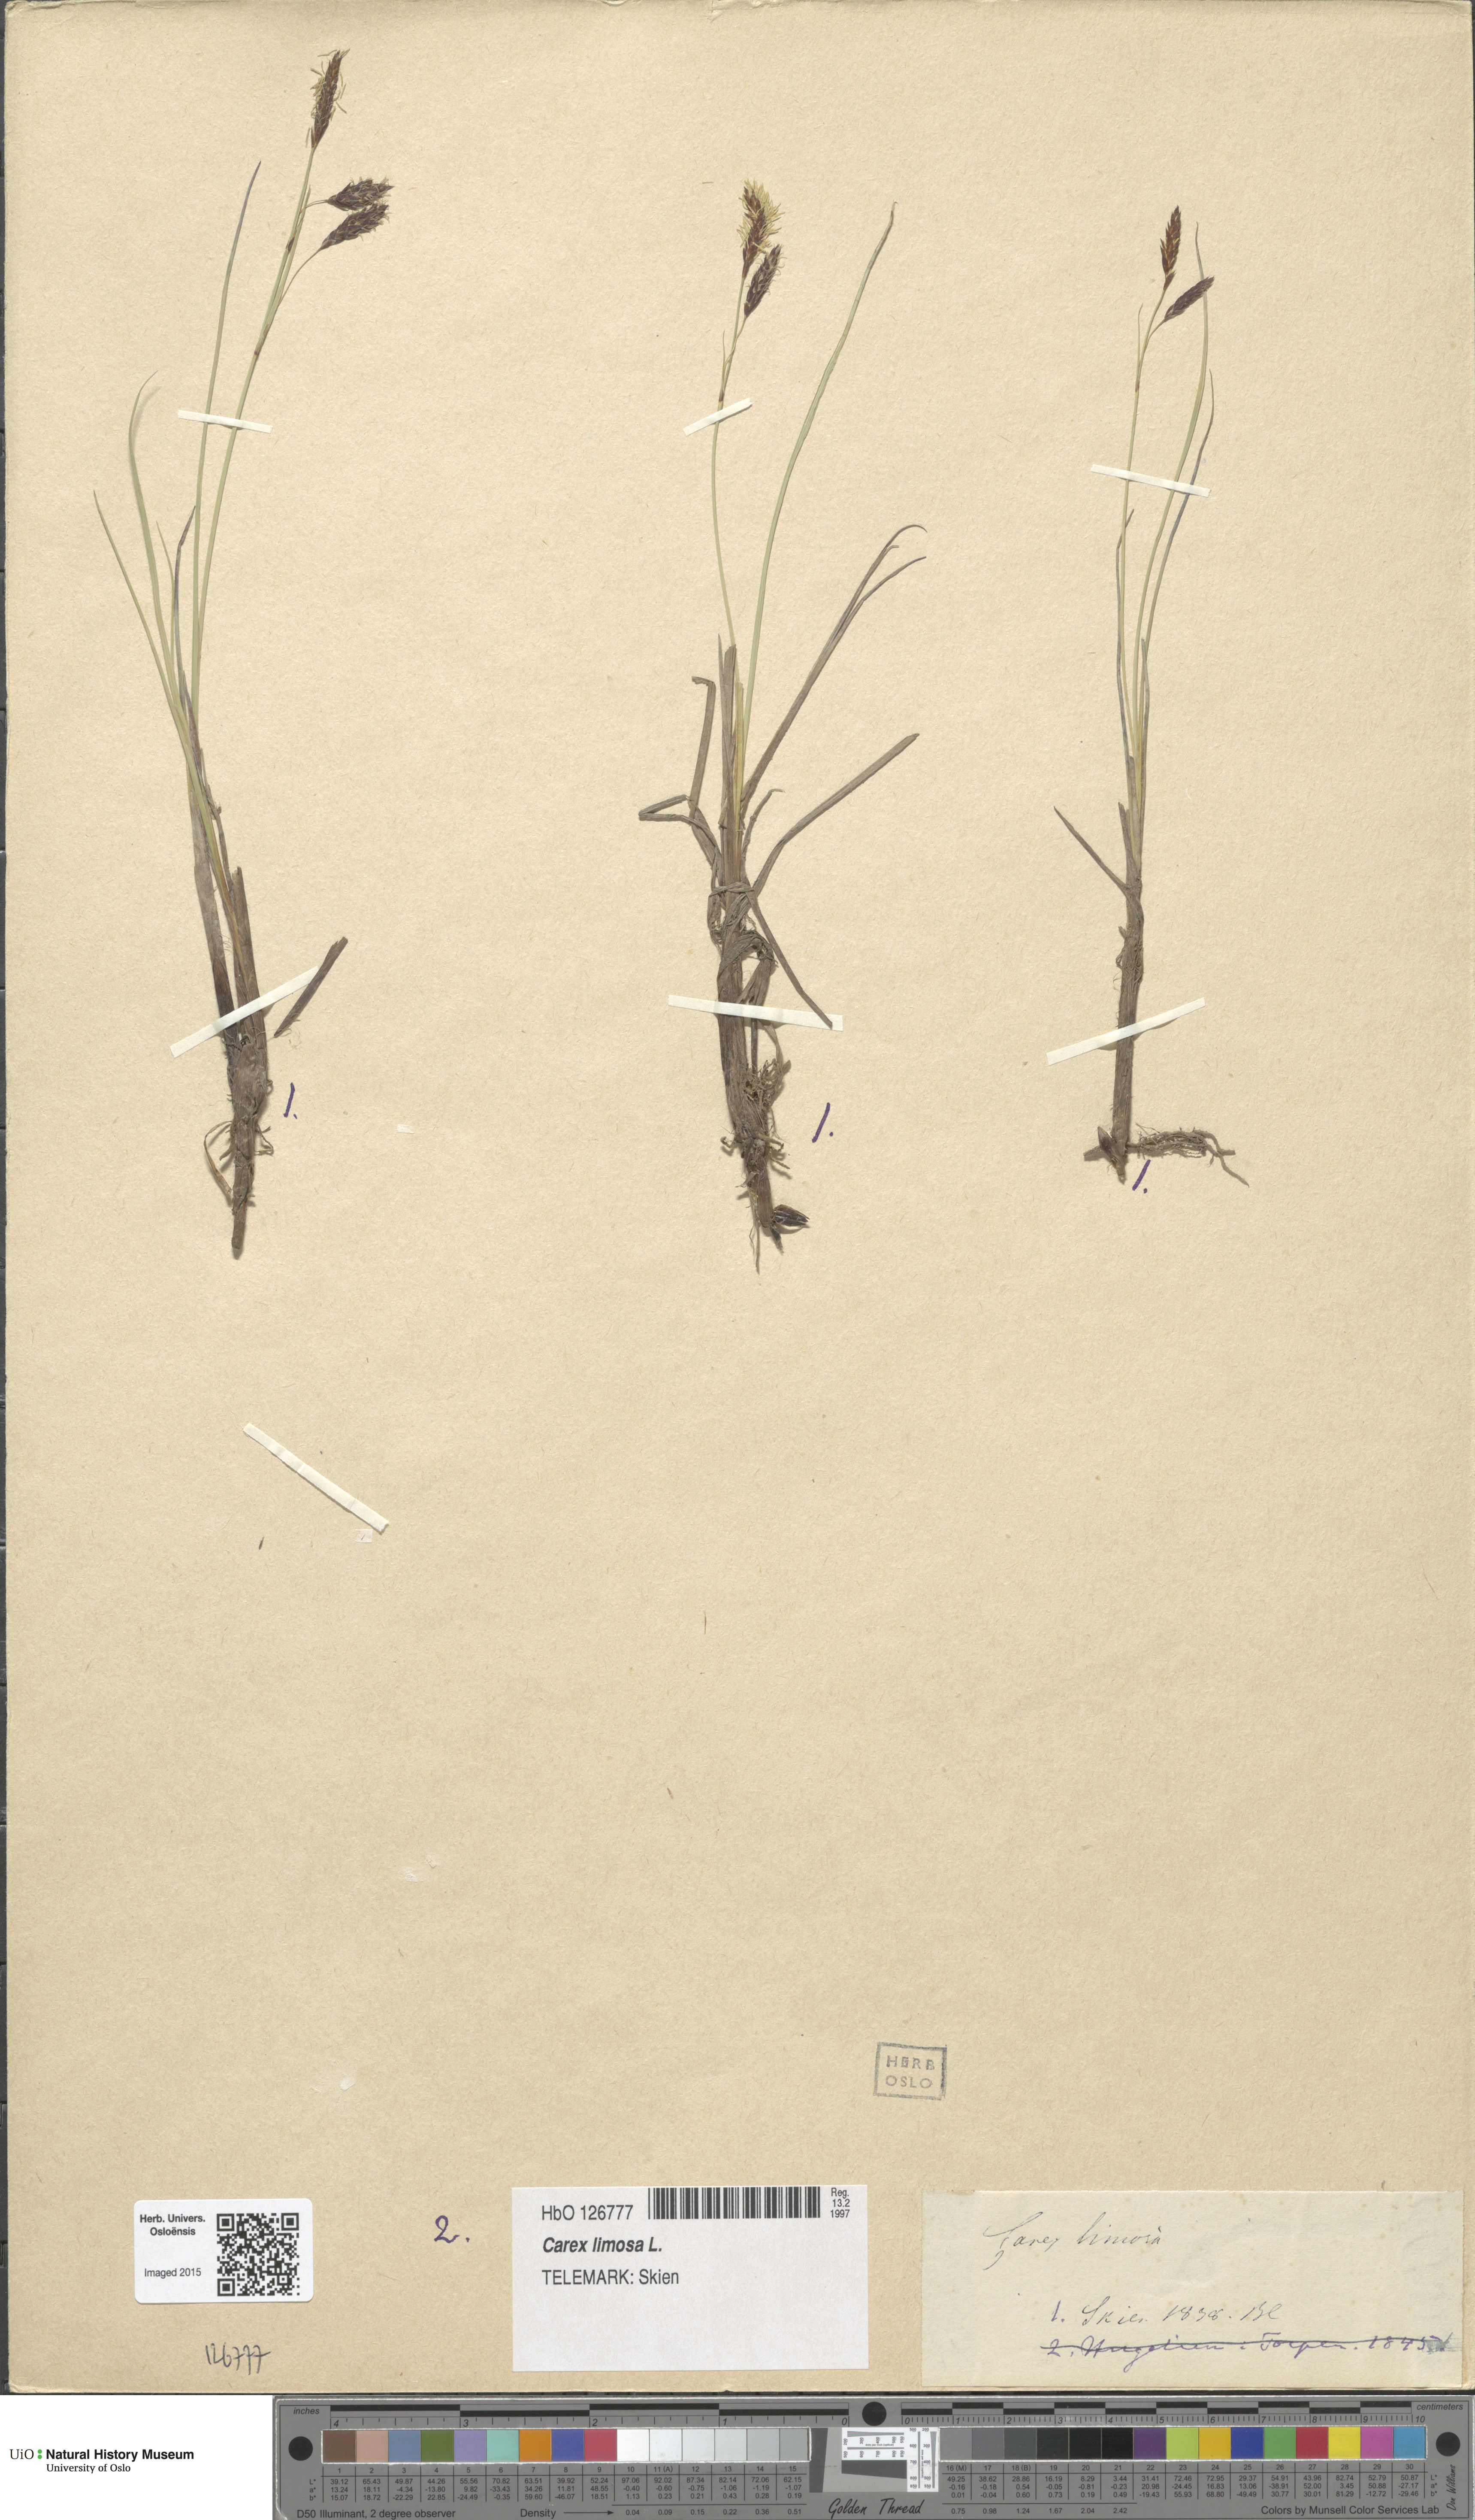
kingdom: Plantae
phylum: Tracheophyta
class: Liliopsida
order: Poales
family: Cyperaceae
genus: Carex
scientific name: Carex limosa
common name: Bog sedge
